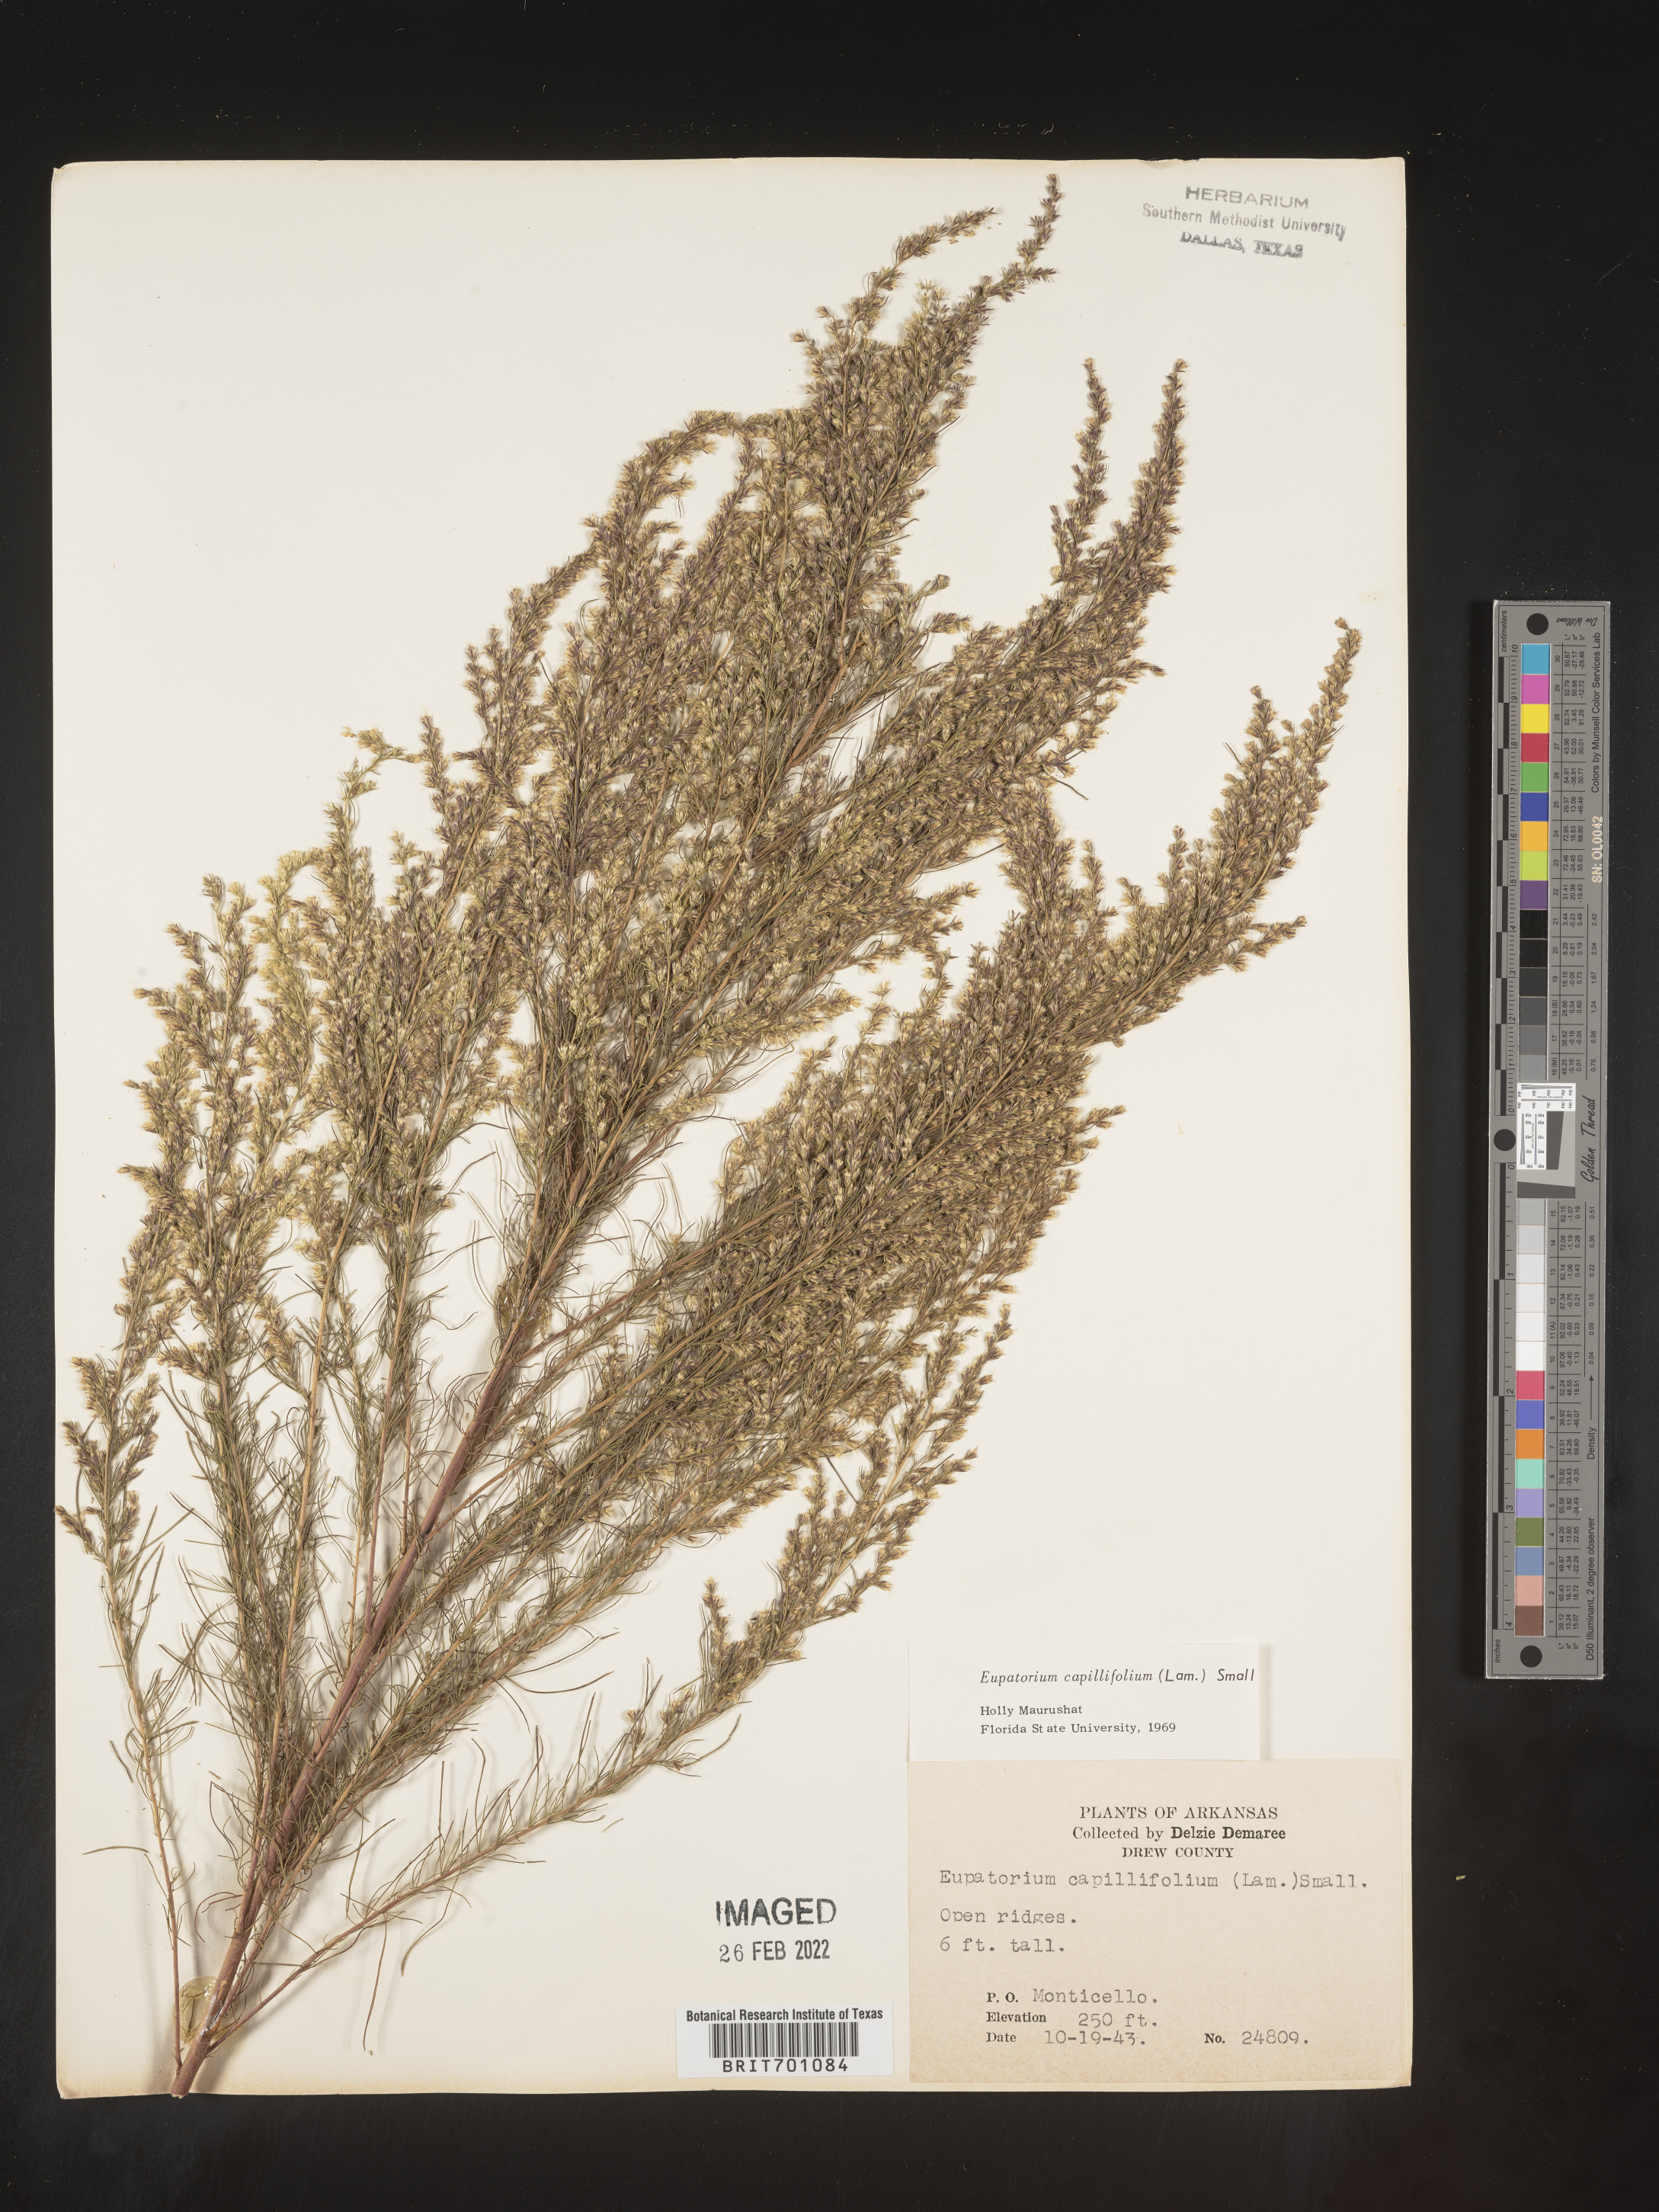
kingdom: Plantae
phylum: Tracheophyta
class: Magnoliopsida
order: Asterales
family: Asteraceae
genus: Eupatorium
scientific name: Eupatorium capillifolium
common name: Dog-fennel
